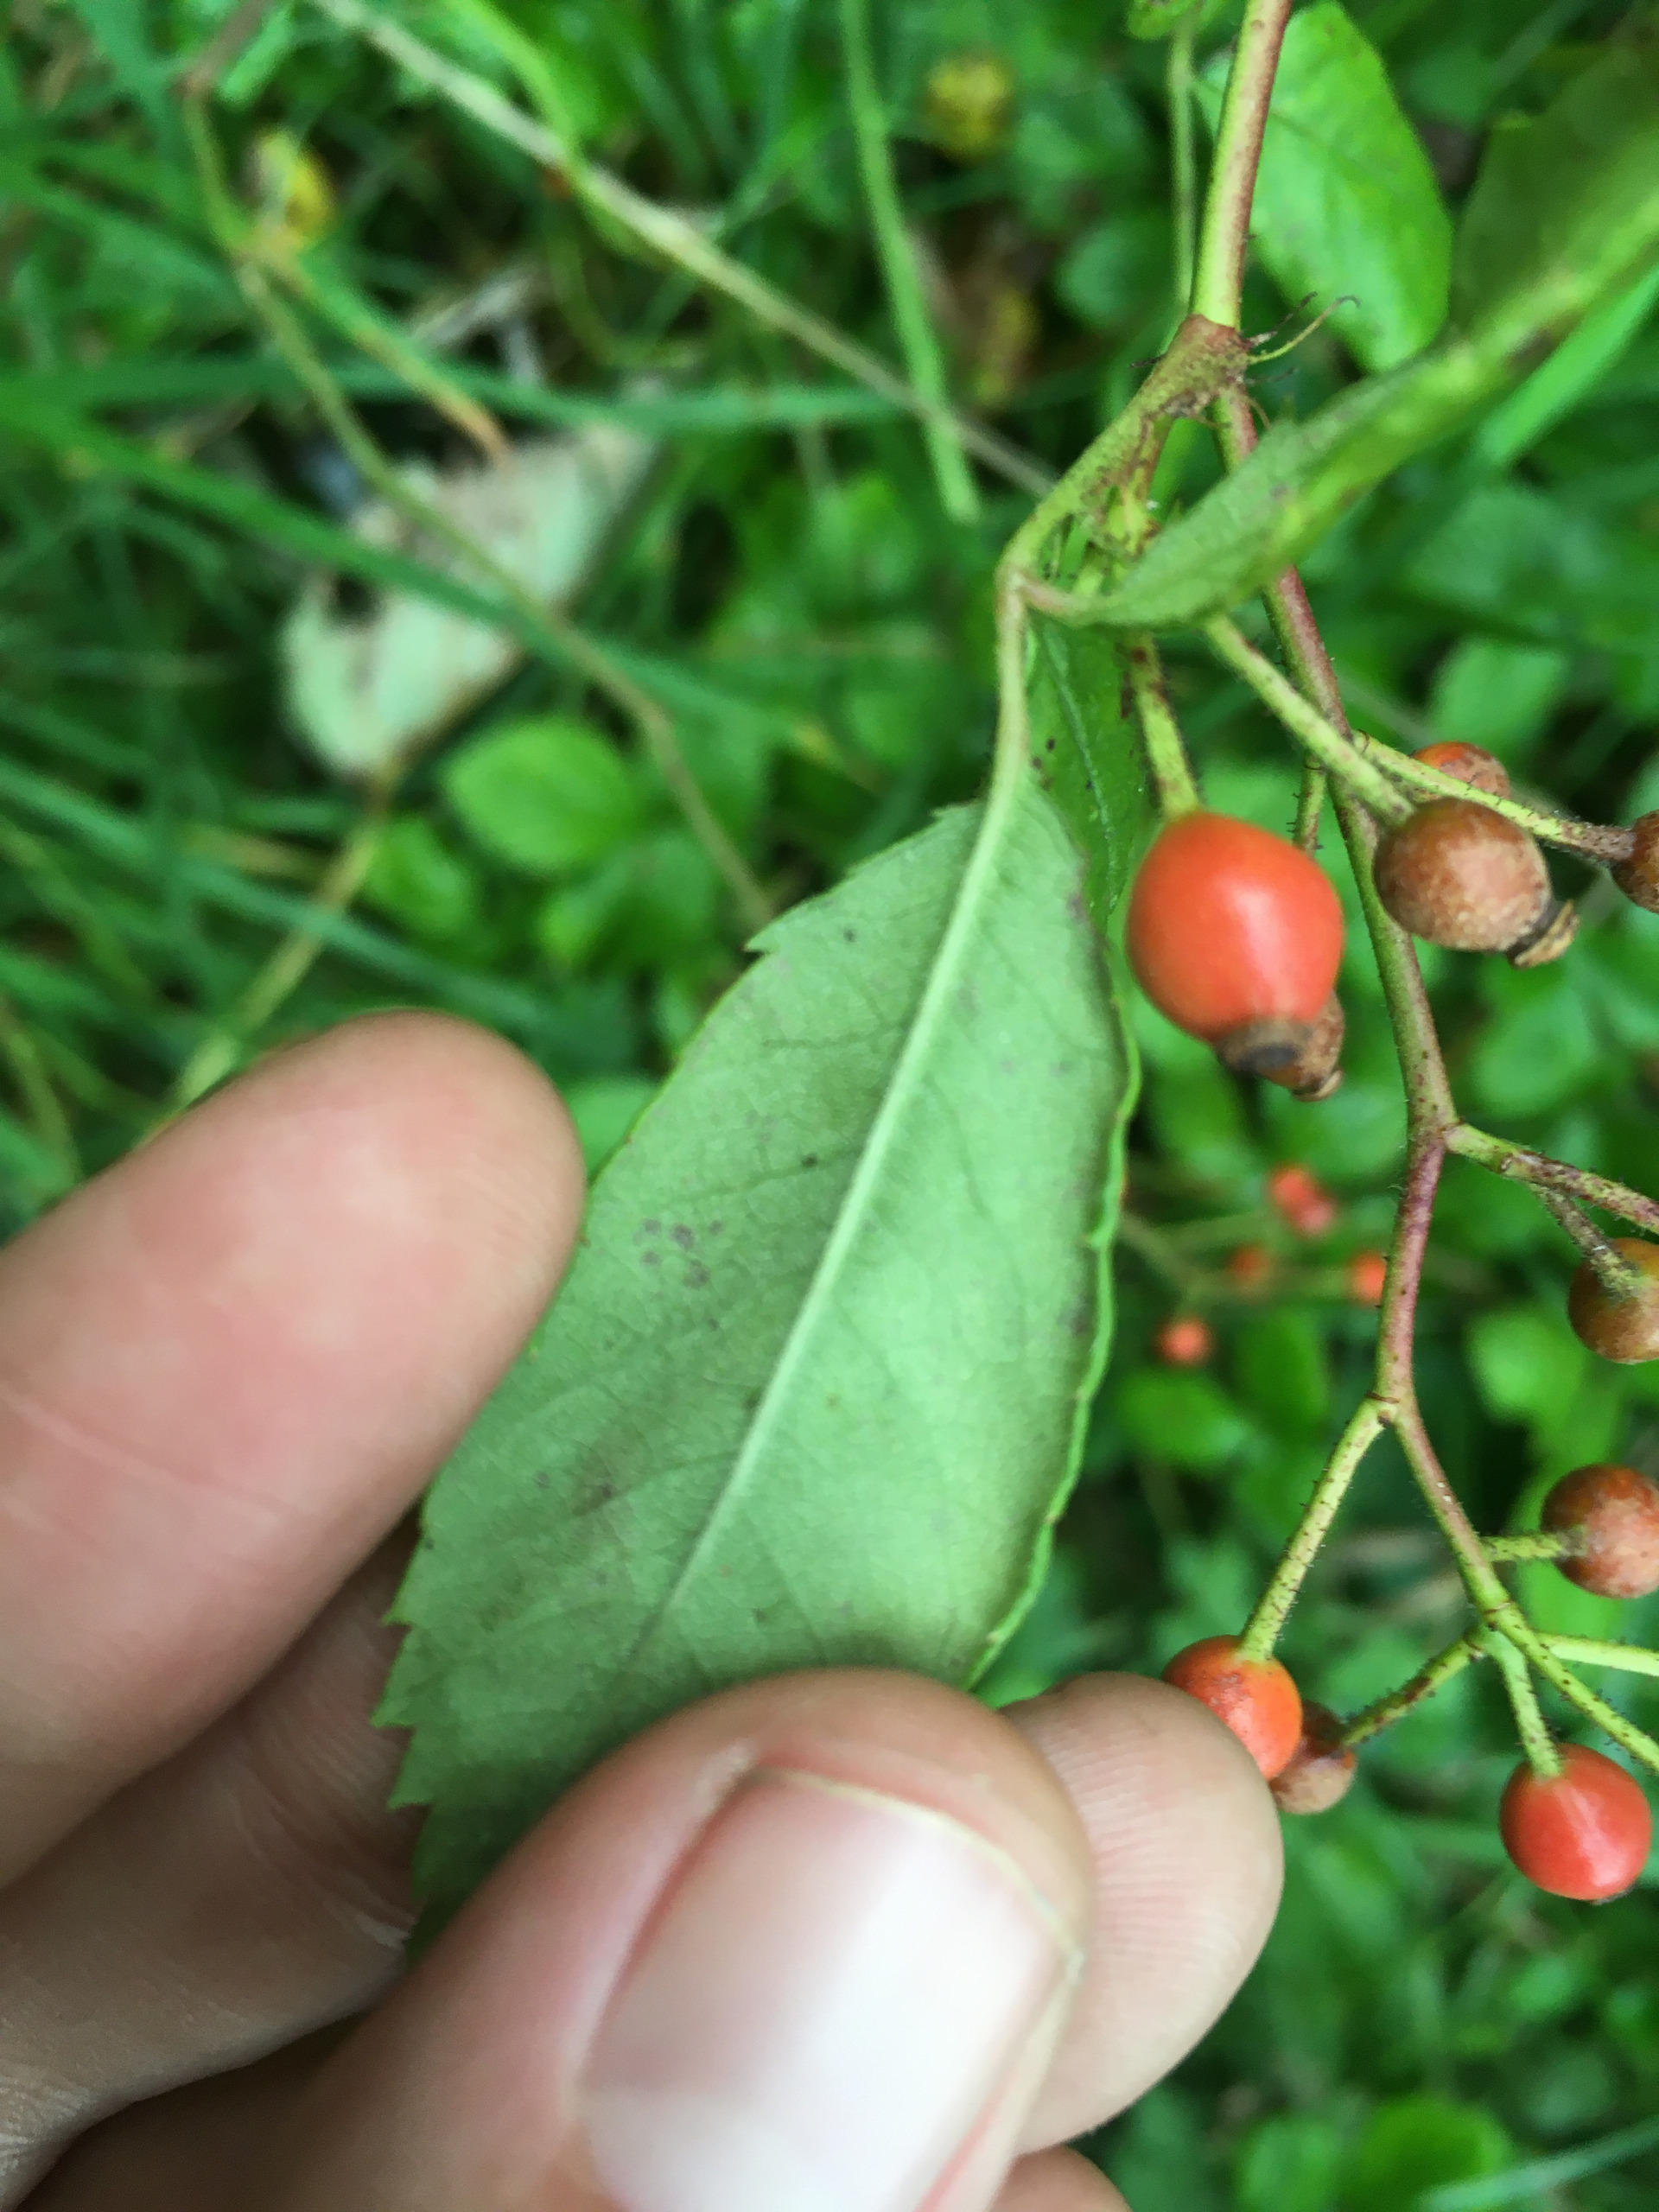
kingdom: Plantae
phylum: Tracheophyta
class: Magnoliopsida
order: Rosales
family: Rosaceae
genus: Rosa
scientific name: Rosa multiflora
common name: Mangeblomstret rose
